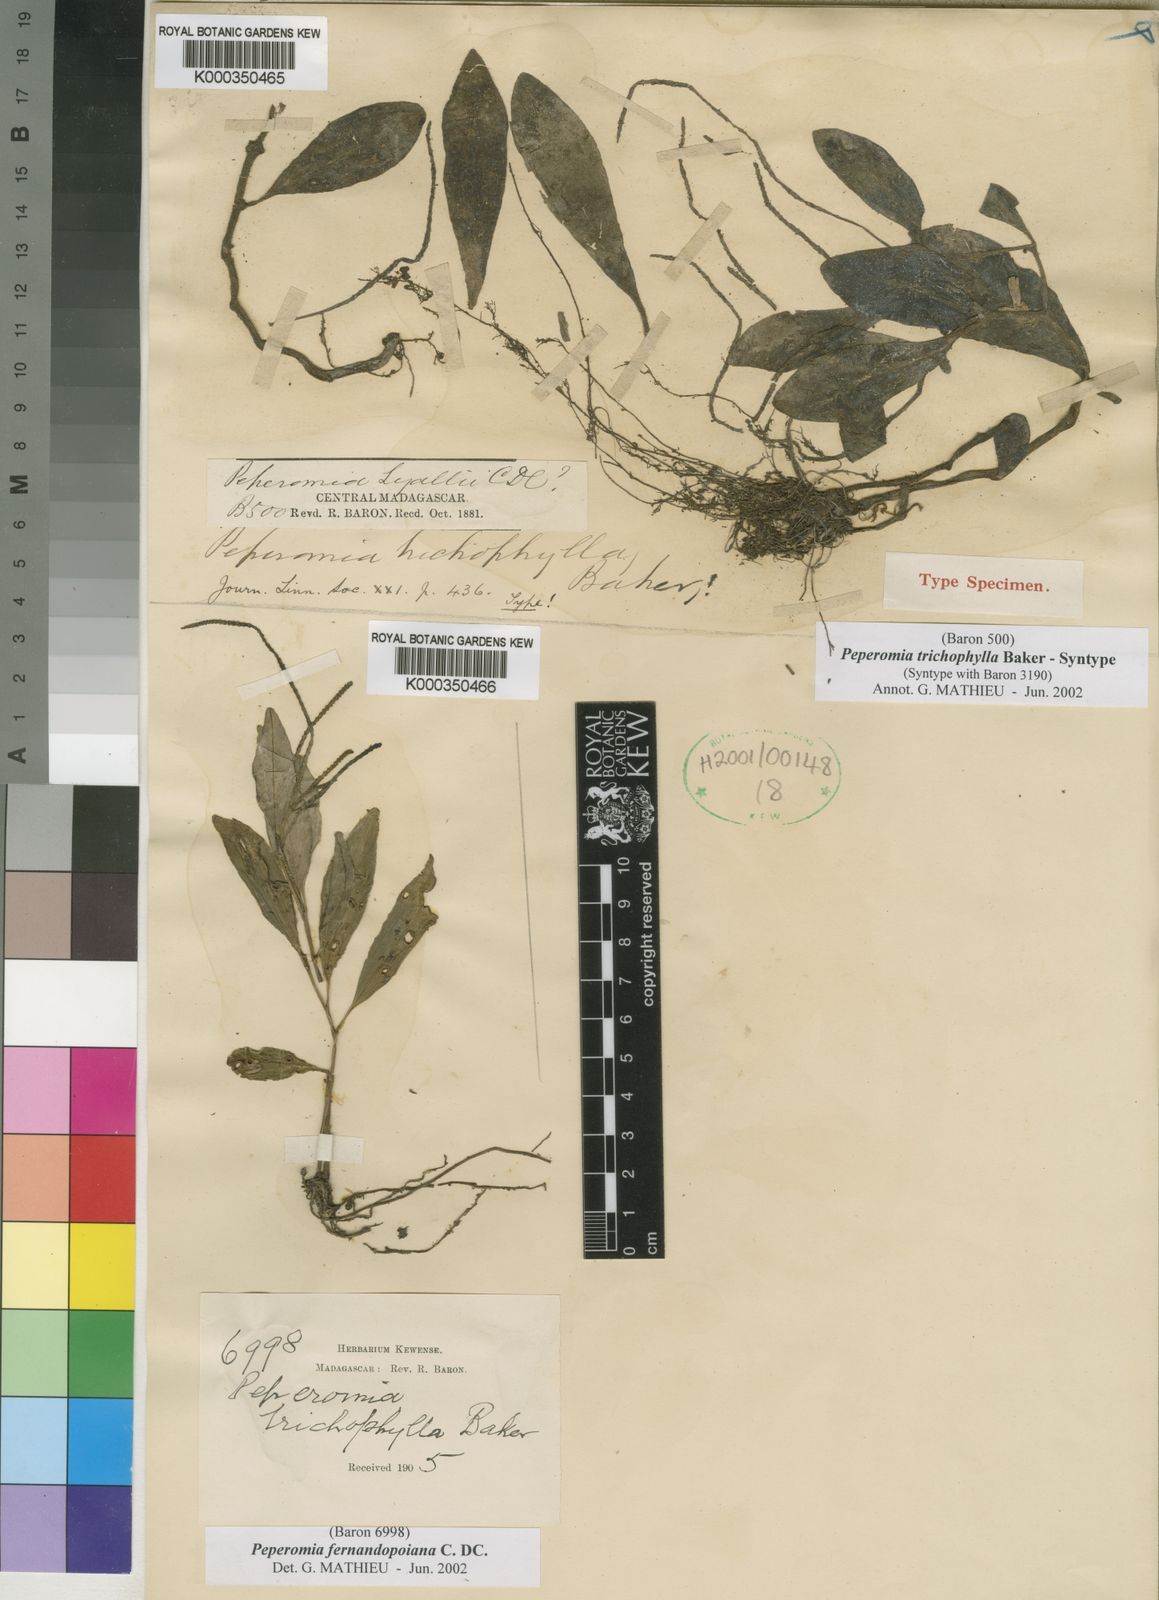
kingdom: Plantae
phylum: Tracheophyta
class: Magnoliopsida
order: Piperales
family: Piperaceae
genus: Peperomia
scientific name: Peperomia trichophylla
